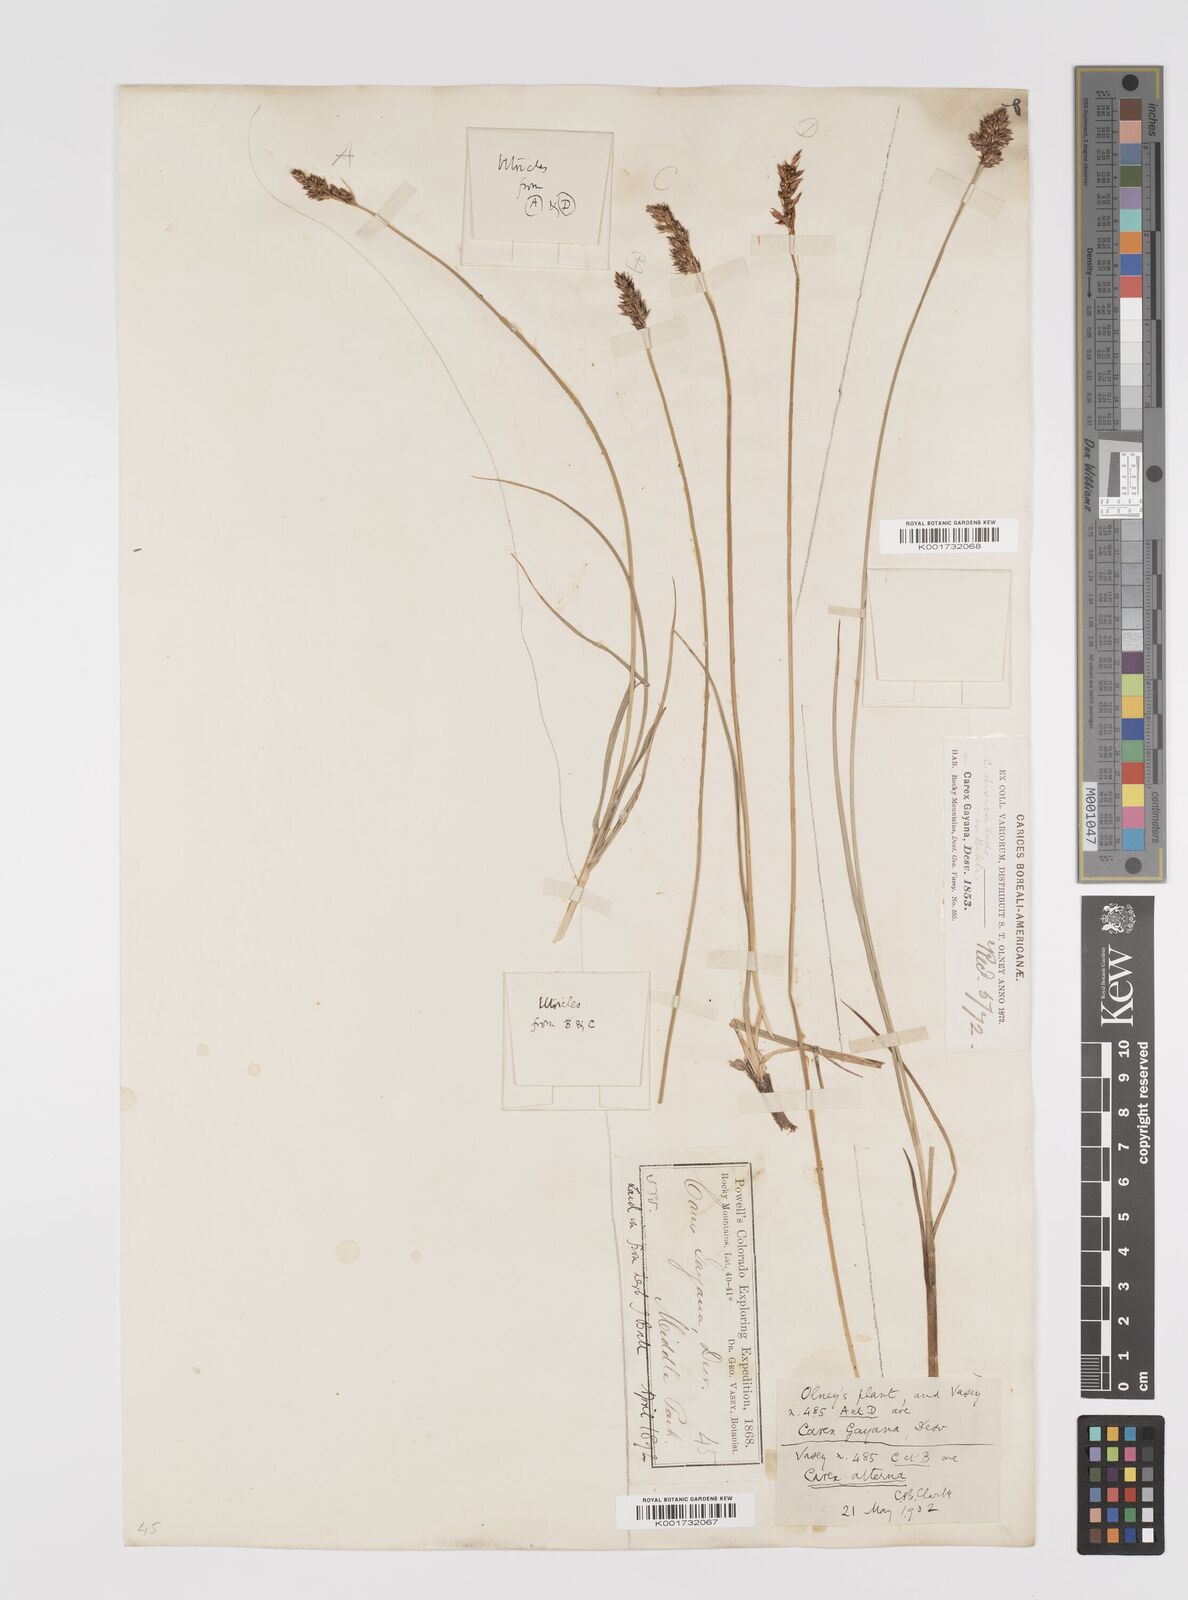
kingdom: Plantae
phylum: Tracheophyta
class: Liliopsida
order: Poales
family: Cyperaceae
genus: Carex
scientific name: Carex praegracilis
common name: Black creeper sedge
